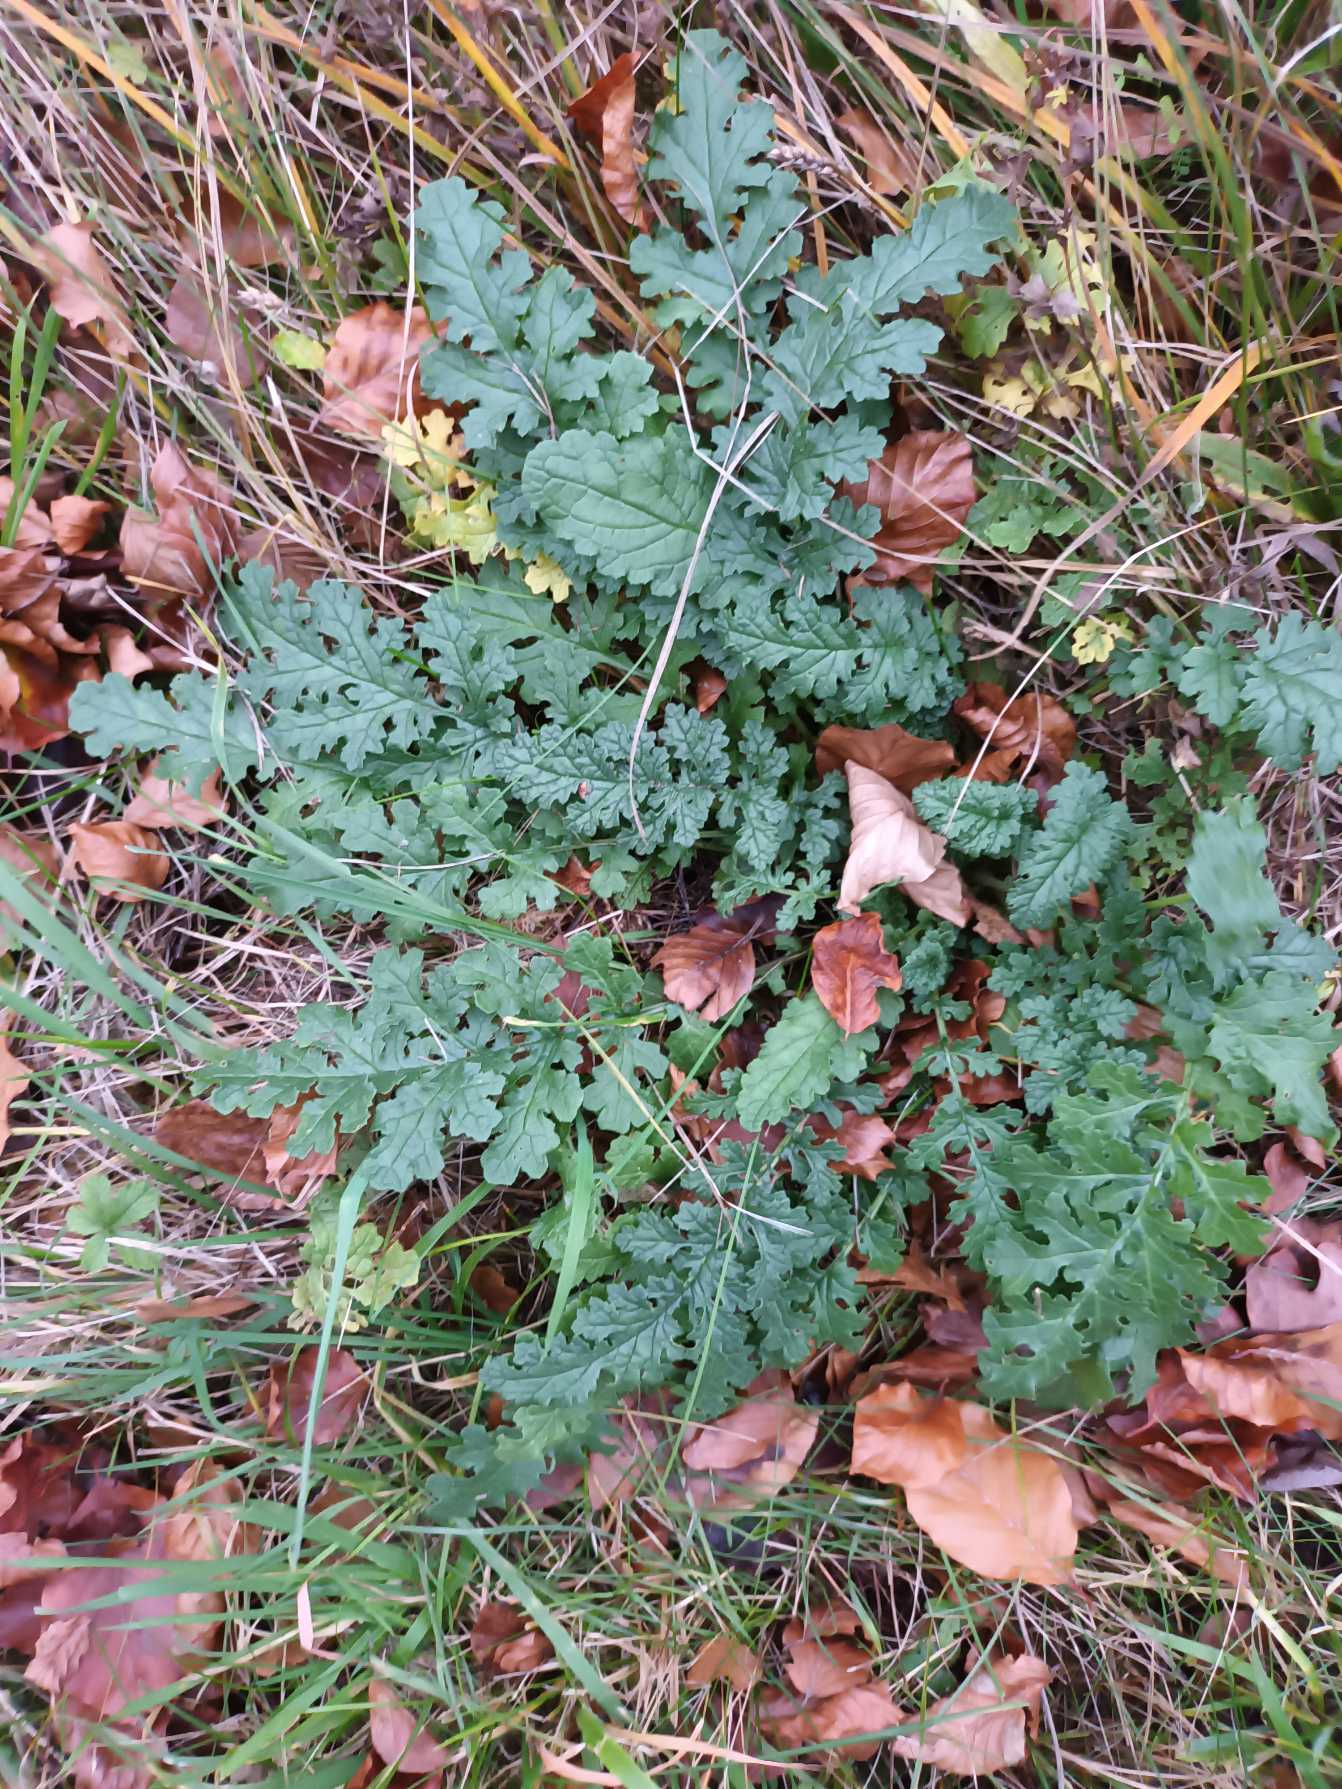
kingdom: Plantae
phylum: Tracheophyta
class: Magnoliopsida
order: Asterales
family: Asteraceae
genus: Jacobaea
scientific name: Jacobaea vulgaris
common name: Eng-brandbæger
